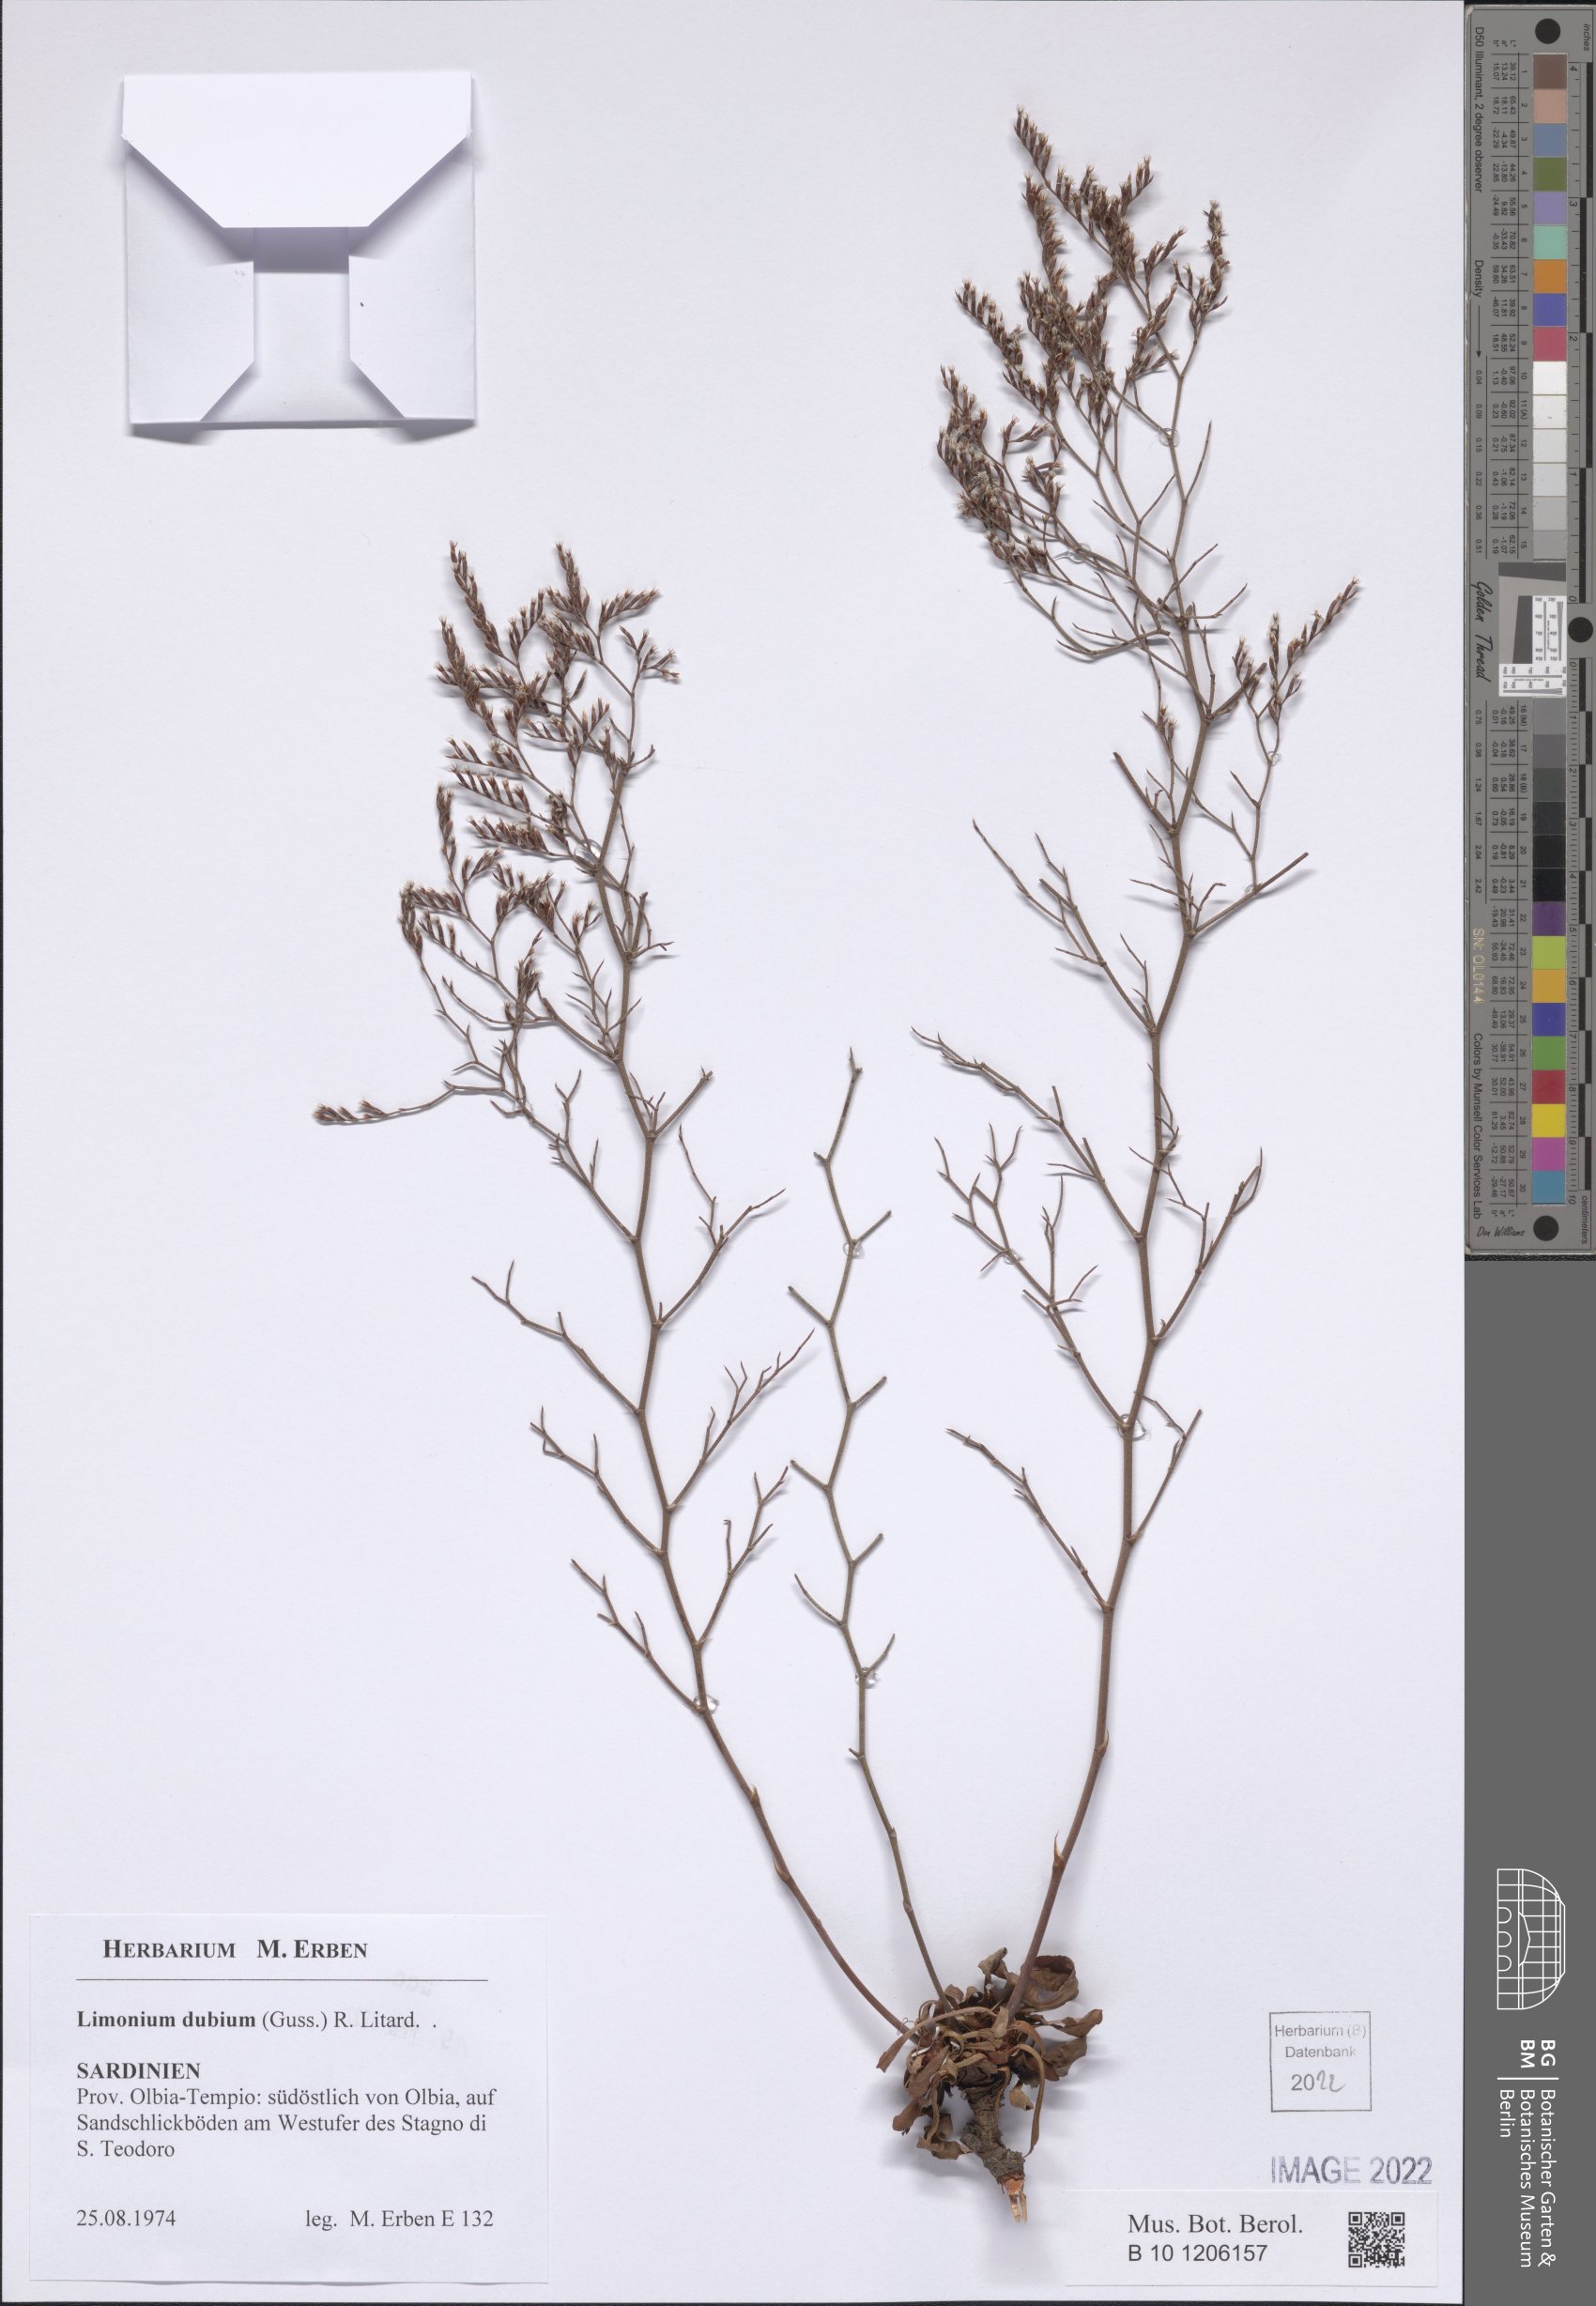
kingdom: Plantae
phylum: Tracheophyta
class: Magnoliopsida
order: Caryophyllales
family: Plumbaginaceae
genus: Limonium
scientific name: Limonium dubium
